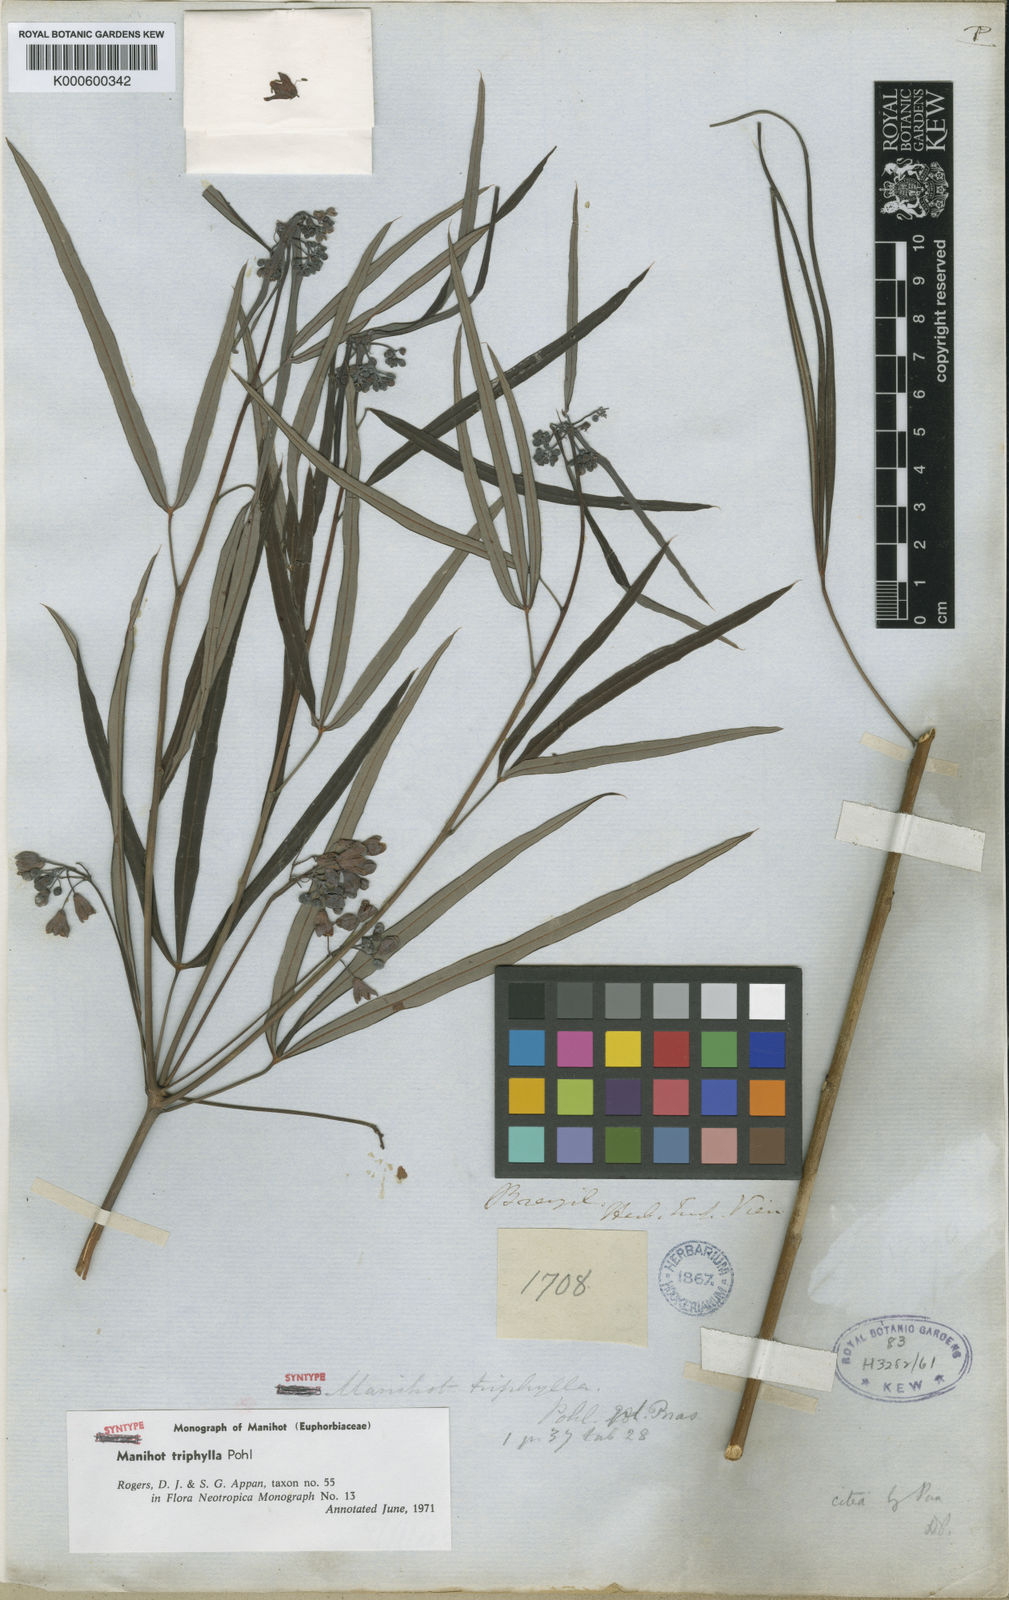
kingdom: Plantae
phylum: Tracheophyta
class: Magnoliopsida
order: Malpighiales
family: Euphorbiaceae
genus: Manihot
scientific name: Manihot triphylla
